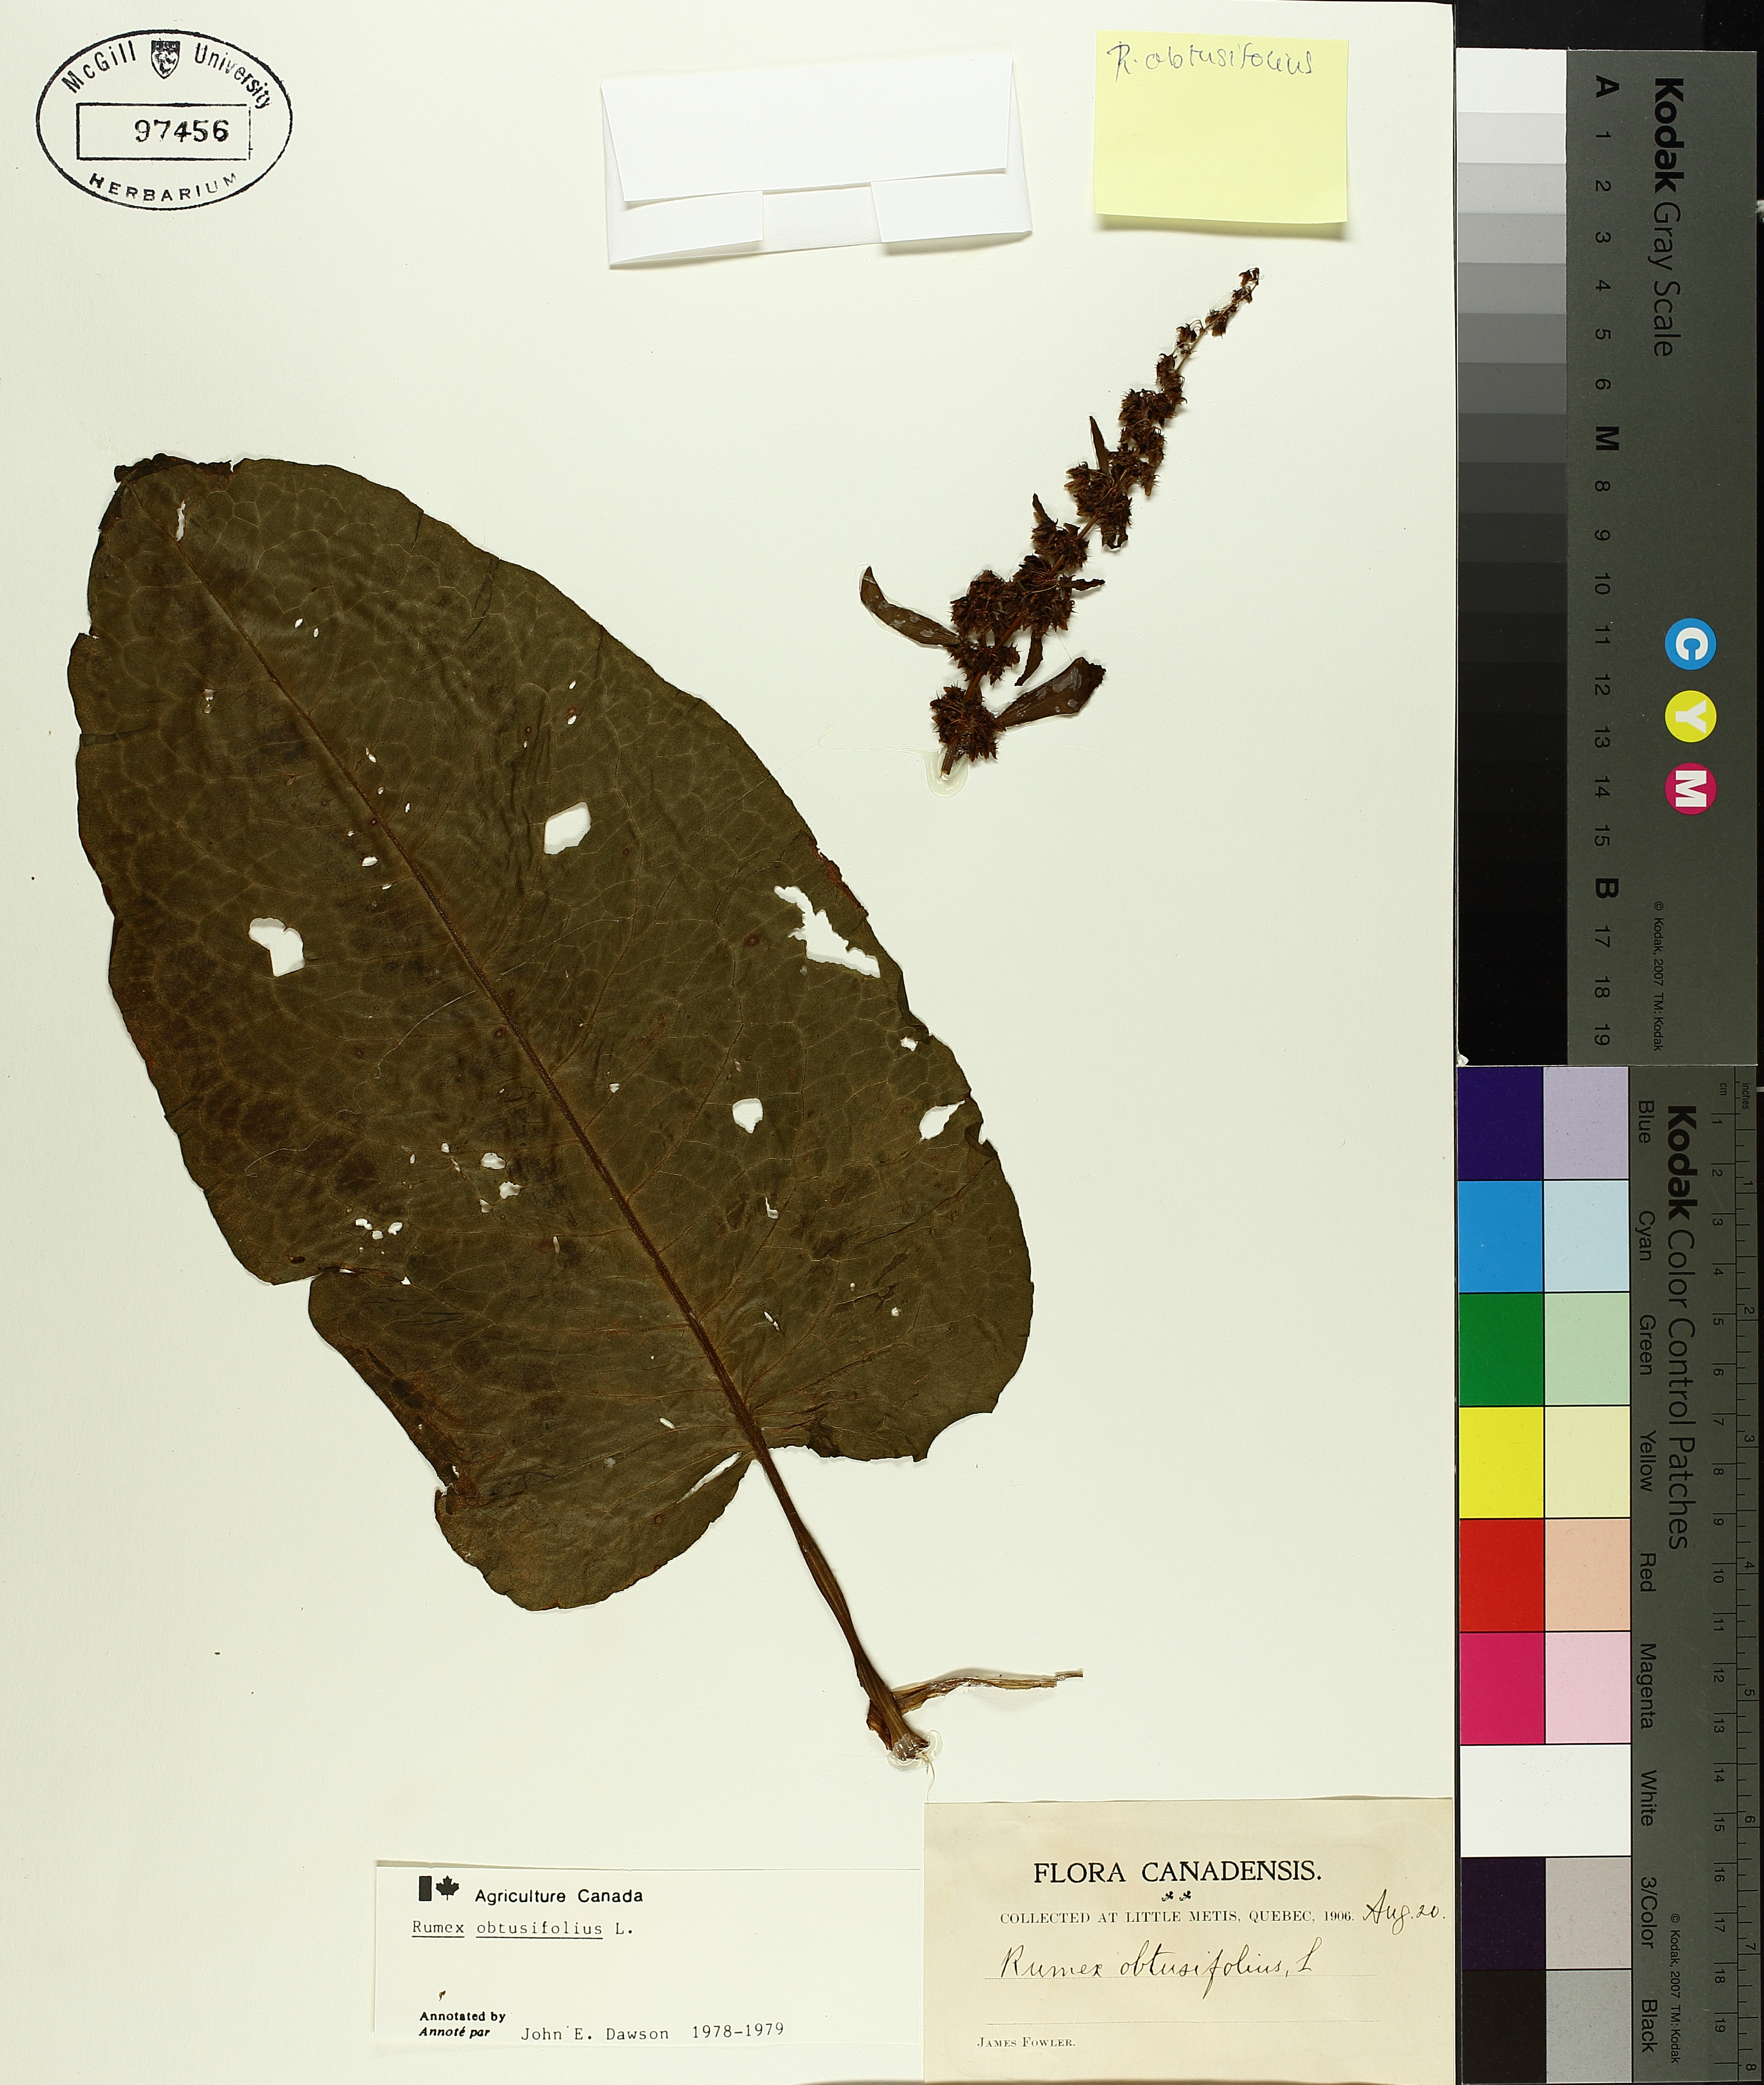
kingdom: Plantae
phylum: Tracheophyta
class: Magnoliopsida
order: Caryophyllales
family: Polygonaceae
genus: Rumex
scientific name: Rumex obtusifolius
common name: Bitter dock
